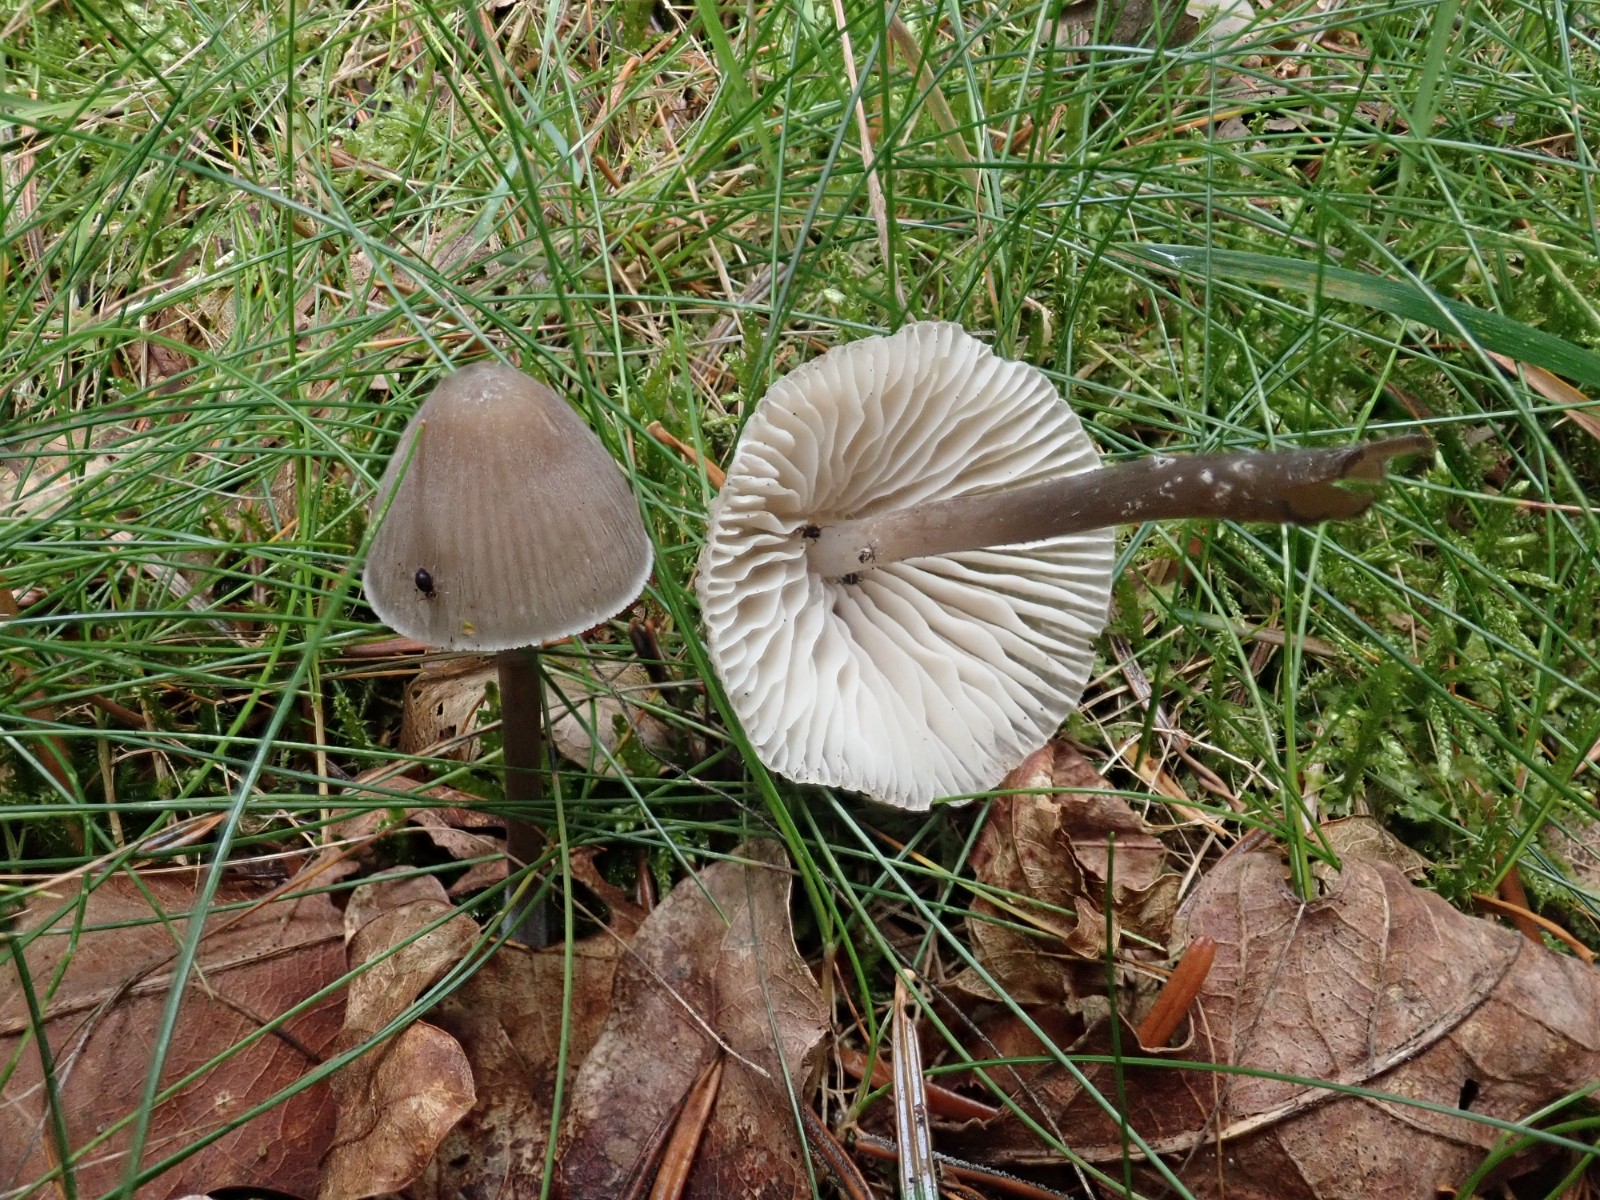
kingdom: Fungi
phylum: Basidiomycota
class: Agaricomycetes
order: Agaricales
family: Mycenaceae
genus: Mycena
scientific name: Mycena abramsii
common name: sommer-huesvamp
